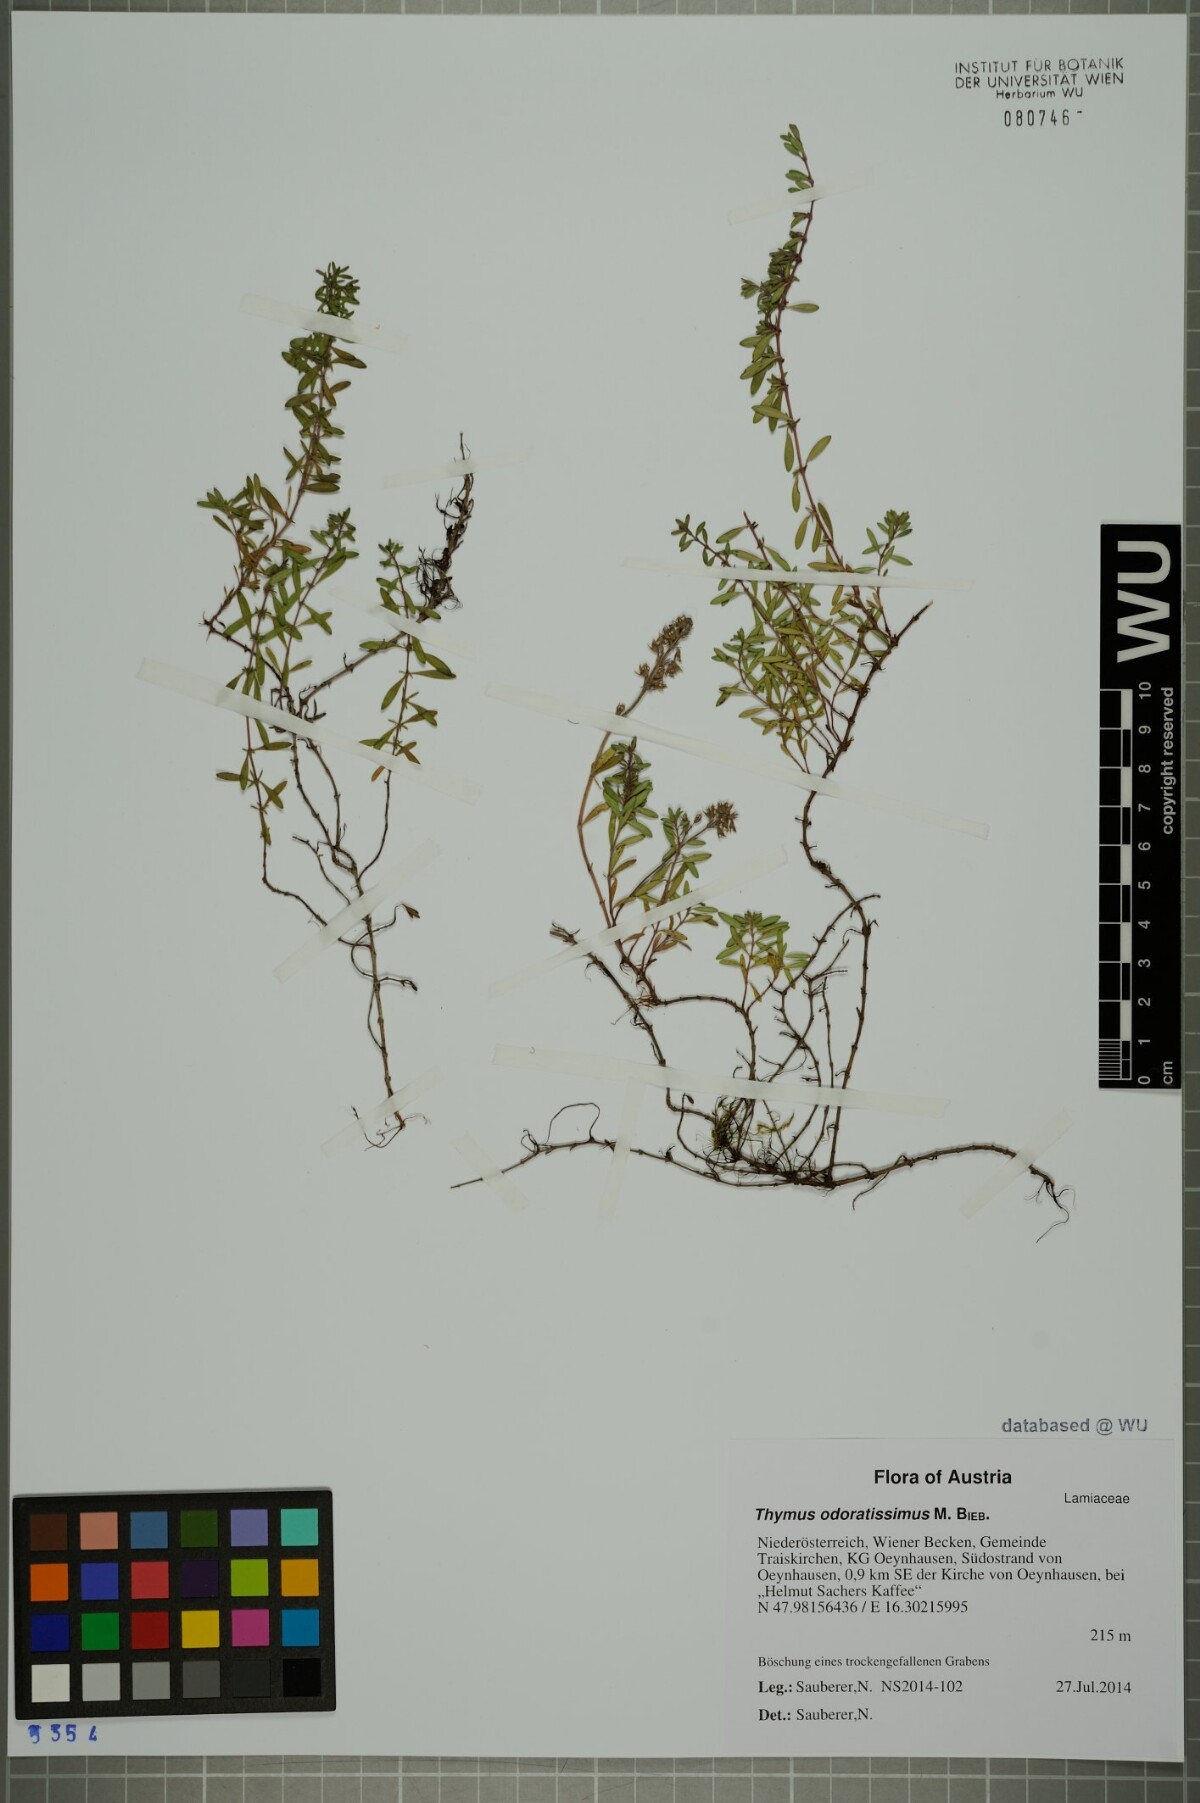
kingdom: Plantae
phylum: Tracheophyta
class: Magnoliopsida
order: Lamiales
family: Lamiaceae
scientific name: Lamiaceae
